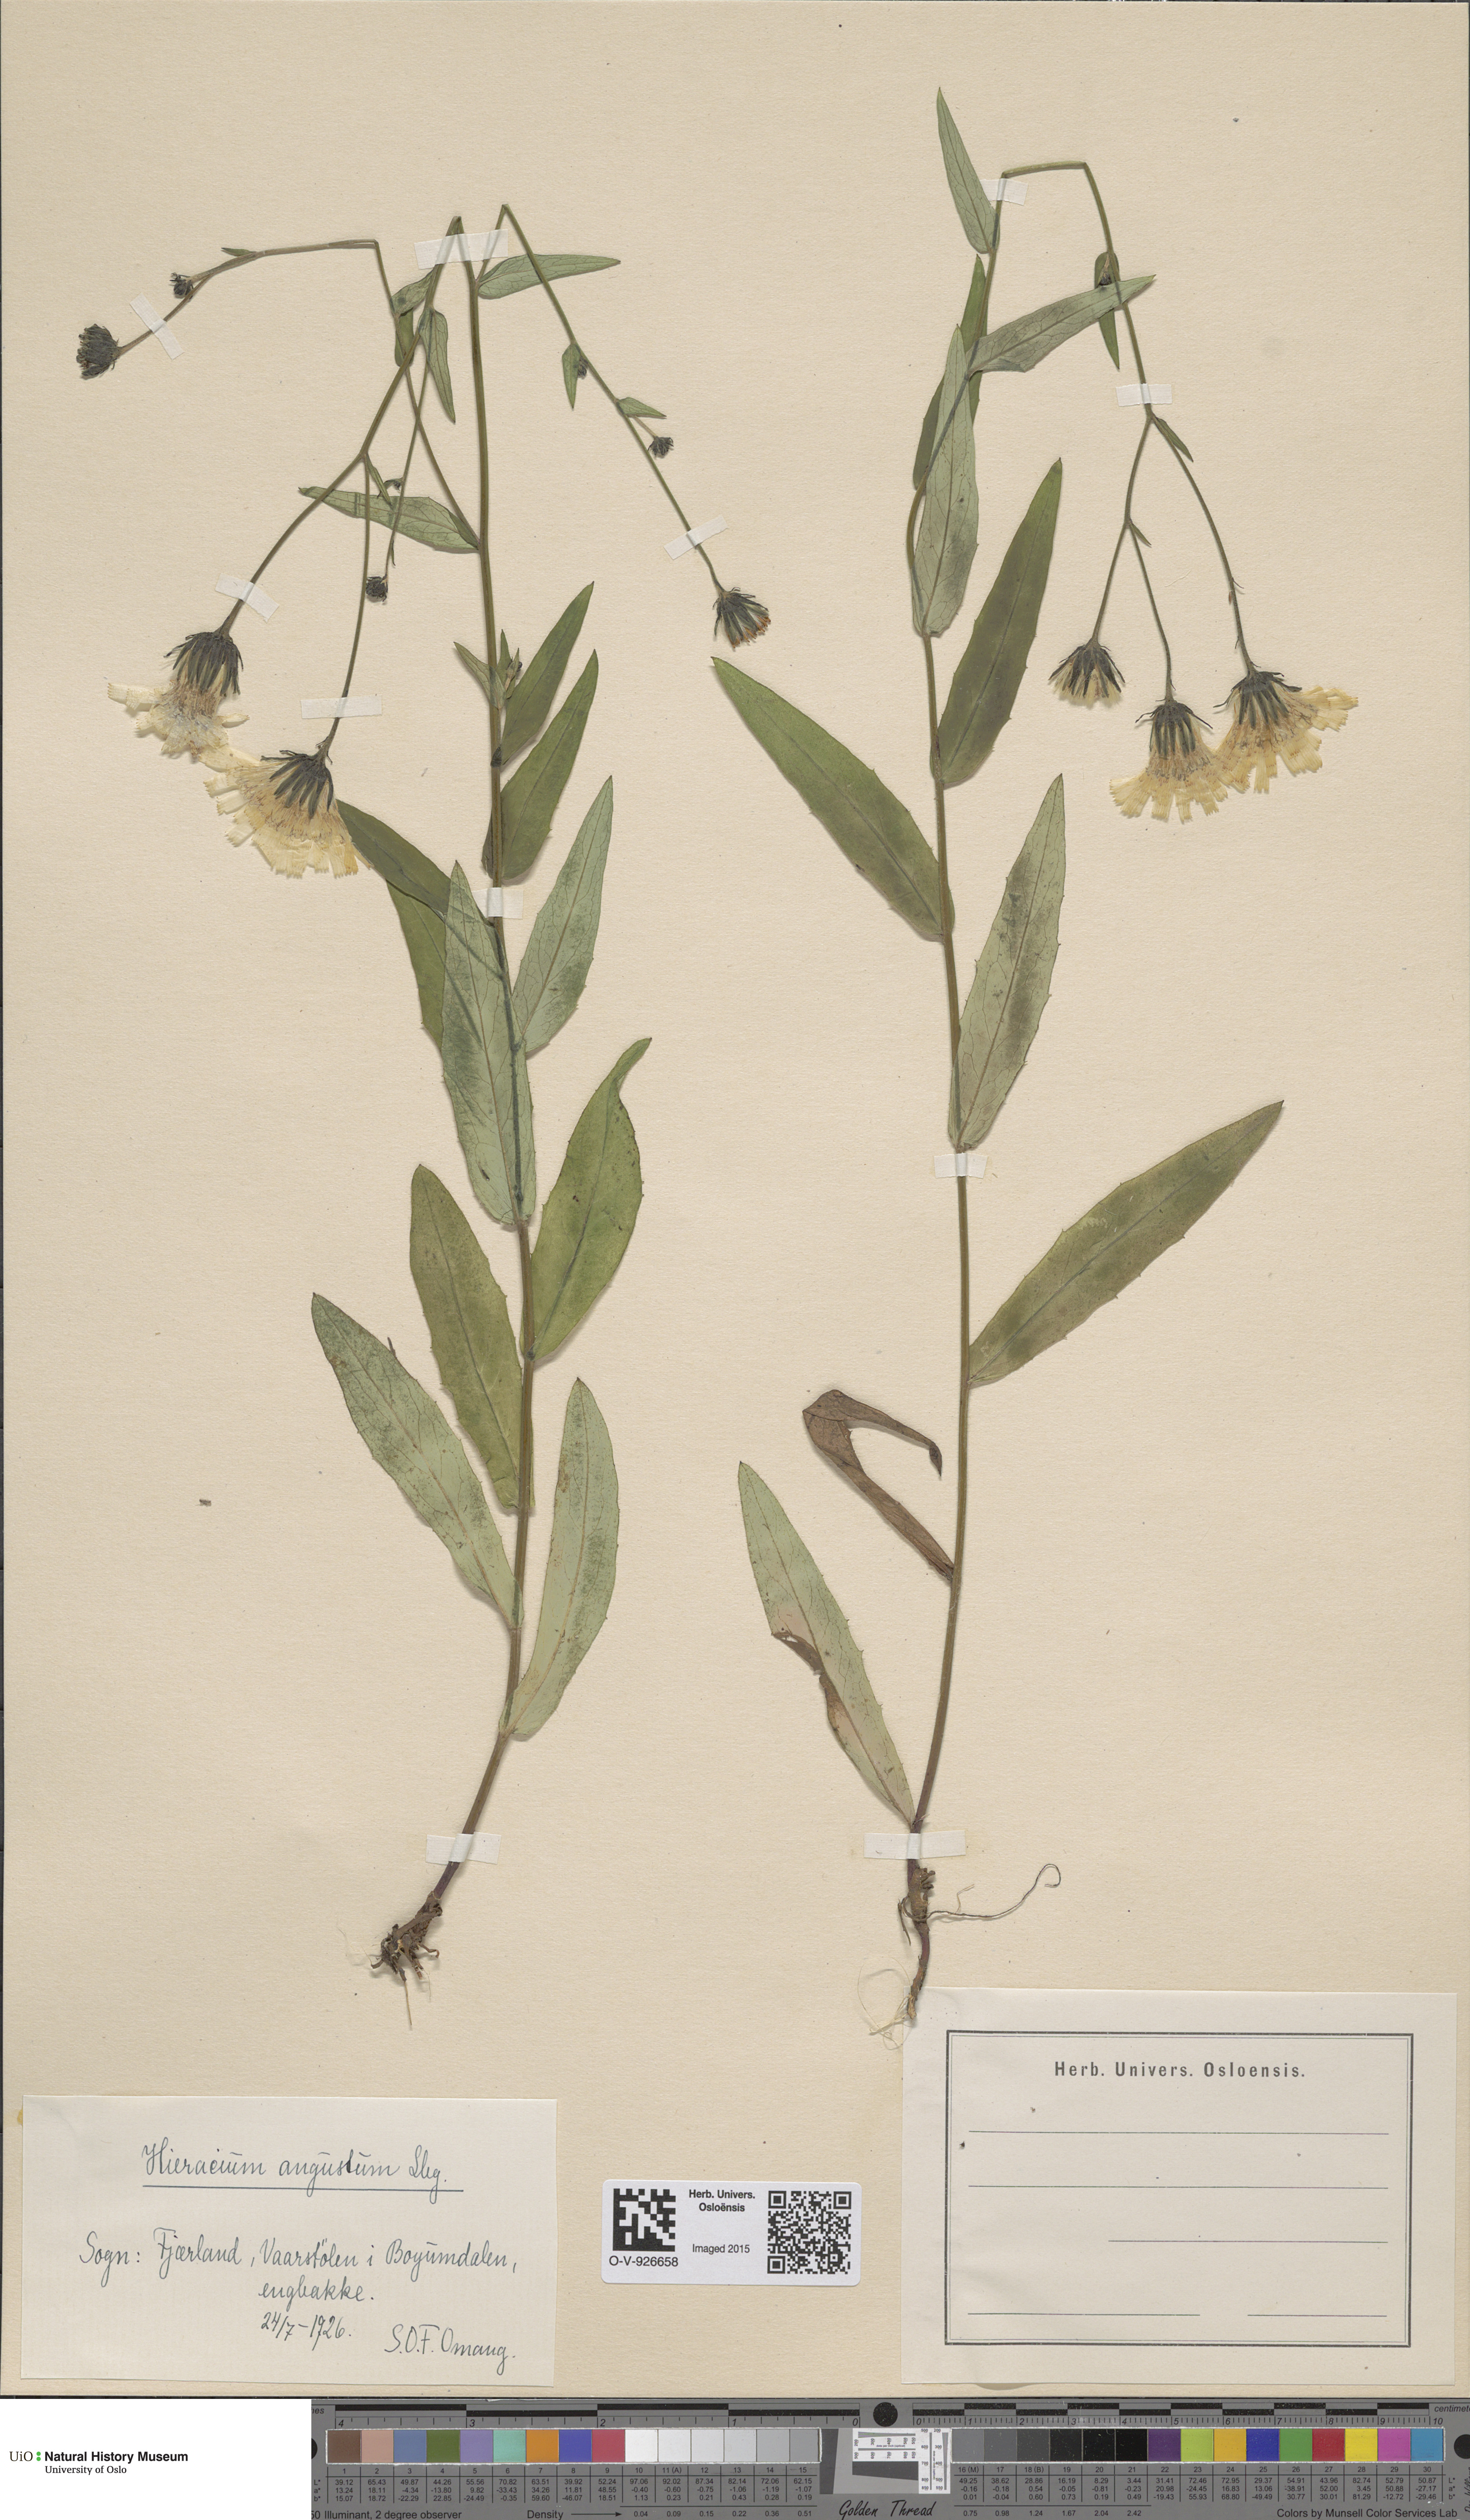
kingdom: Plantae
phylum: Tracheophyta
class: Magnoliopsida
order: Asterales
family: Asteraceae
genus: Hieracium
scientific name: Hieracium angustum
